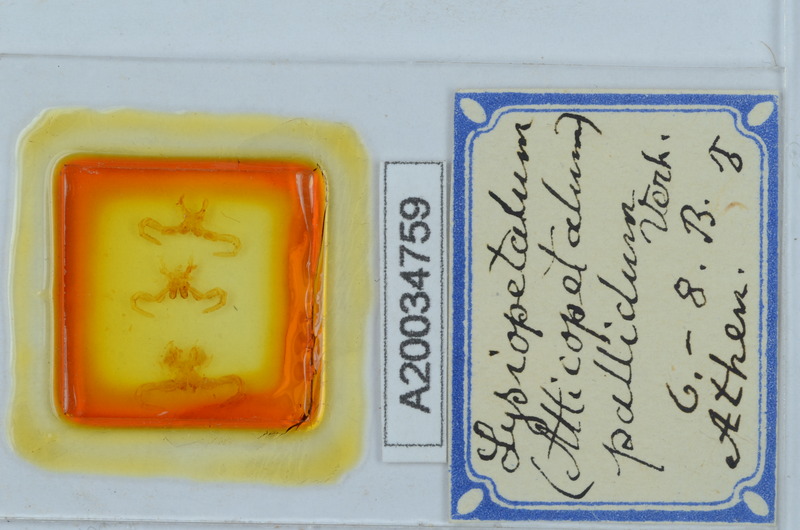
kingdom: Animalia
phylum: Arthropoda
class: Diplopoda
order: Callipodida
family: Schizopetalidae
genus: Acanthopetalum
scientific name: Acanthopetalum blanci
